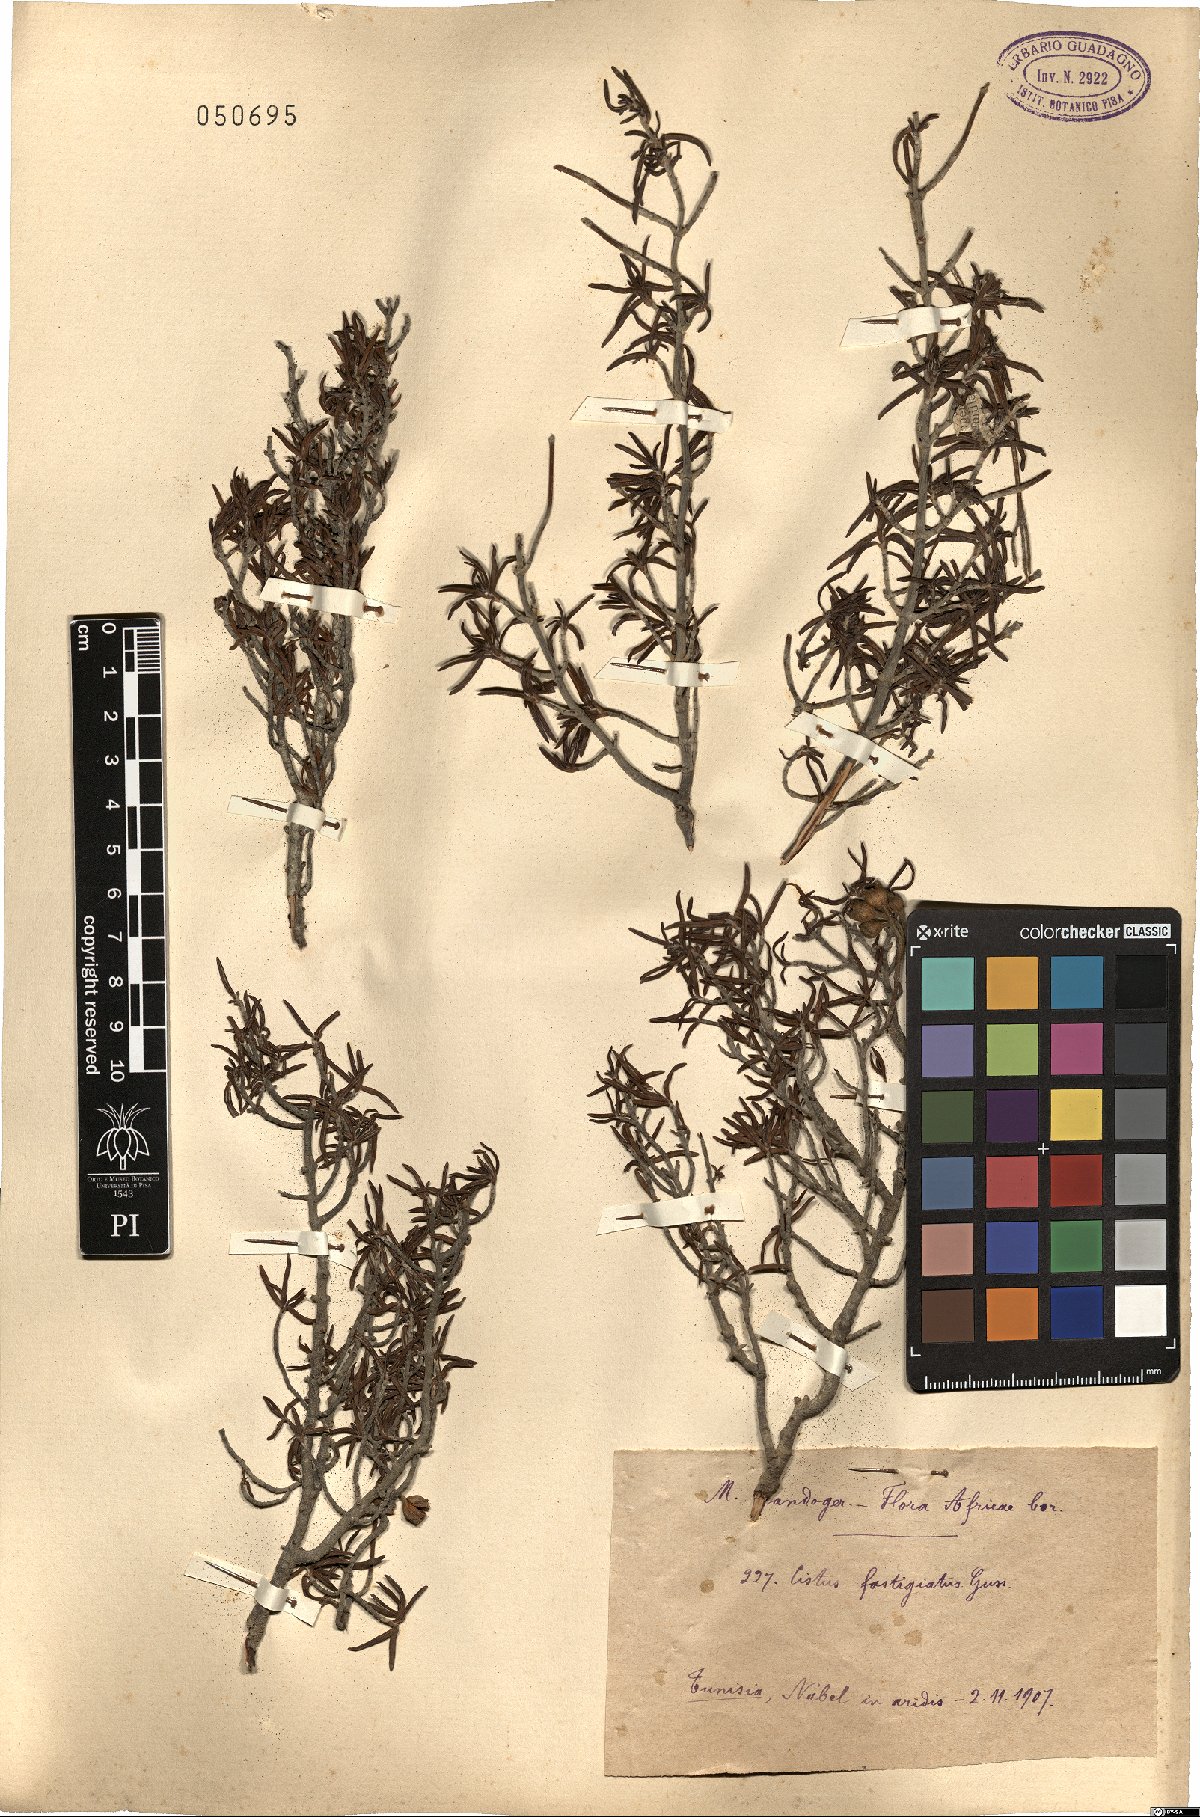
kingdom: Plantae
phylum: Tracheophyta
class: Magnoliopsida
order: Malvales
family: Cistaceae
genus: Cistus
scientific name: Cistus clusii
